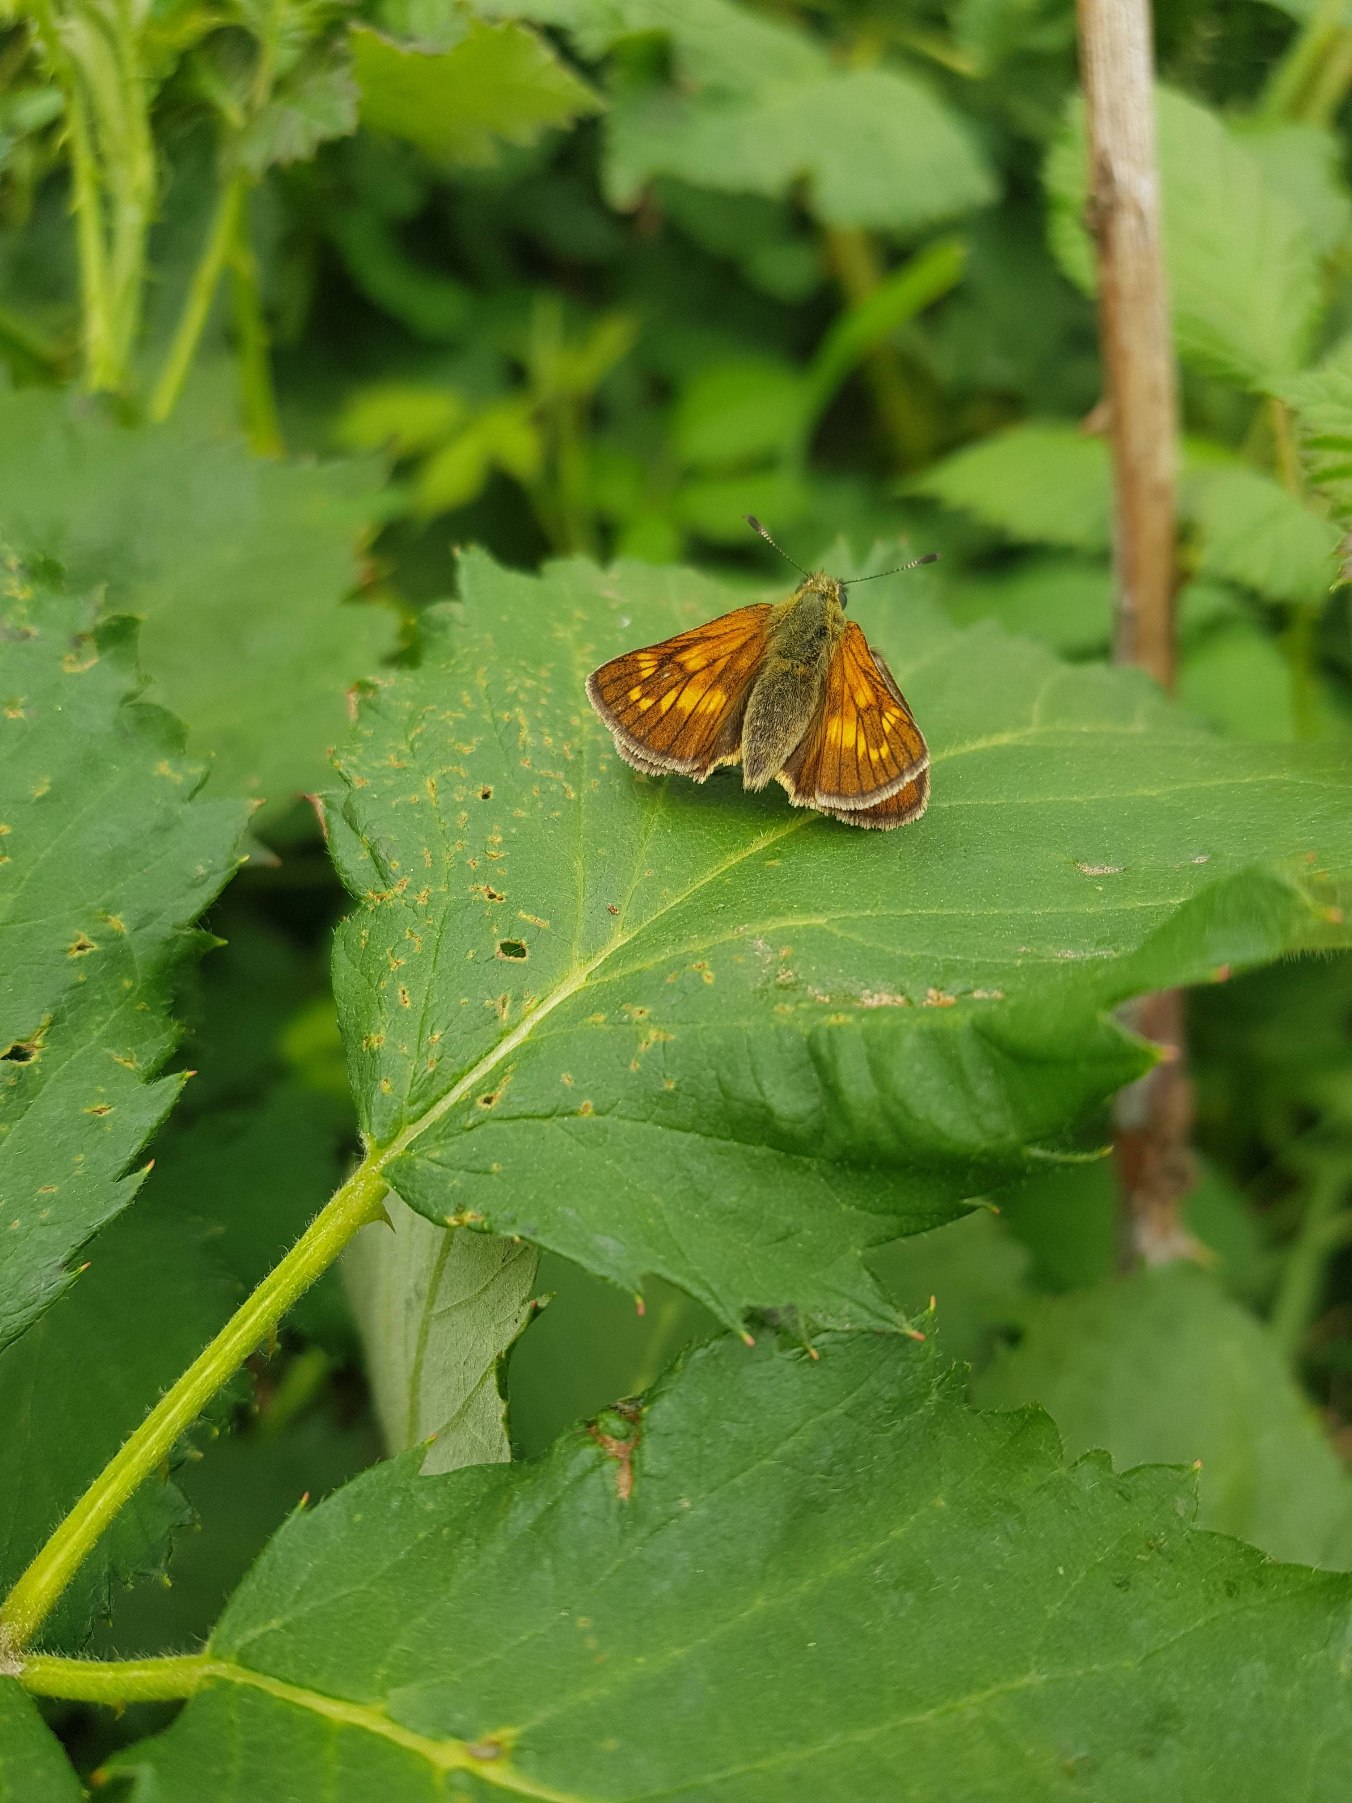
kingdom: Animalia
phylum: Arthropoda
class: Insecta
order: Lepidoptera
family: Hesperiidae
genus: Ochlodes
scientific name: Ochlodes venata
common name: Stor bredpande
